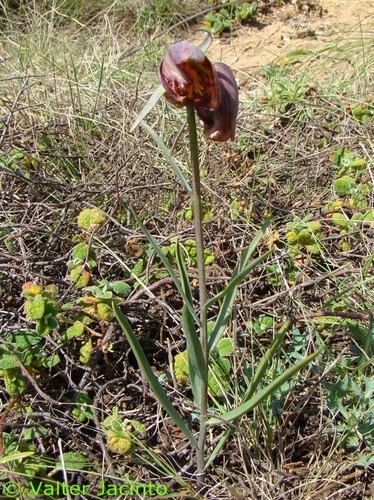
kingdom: Plantae
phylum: Tracheophyta
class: Liliopsida
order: Liliales
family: Liliaceae
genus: Fritillaria
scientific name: Fritillaria lusitanica
